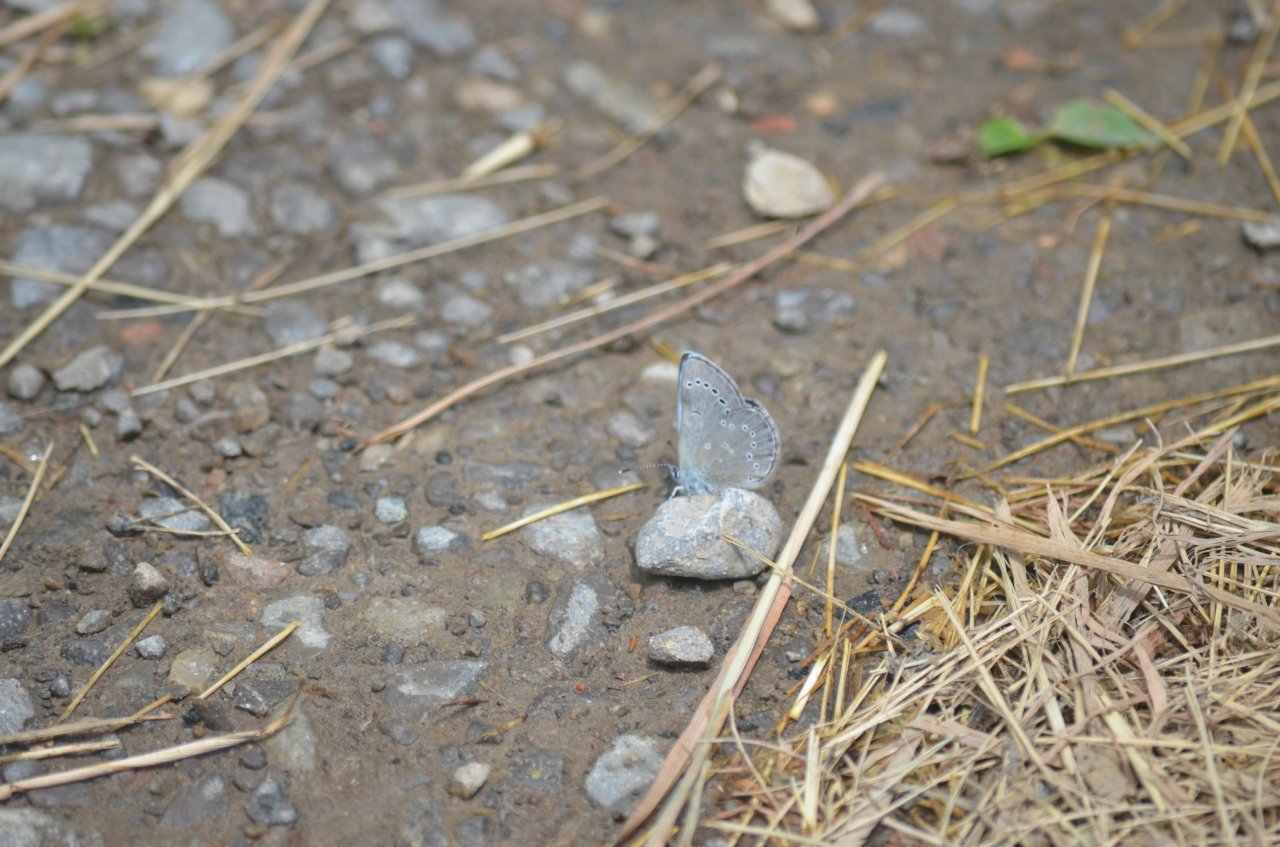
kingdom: Animalia
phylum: Arthropoda
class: Insecta
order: Lepidoptera
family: Lycaenidae
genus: Glaucopsyche
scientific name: Glaucopsyche lygdamus
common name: Silvery Blue
